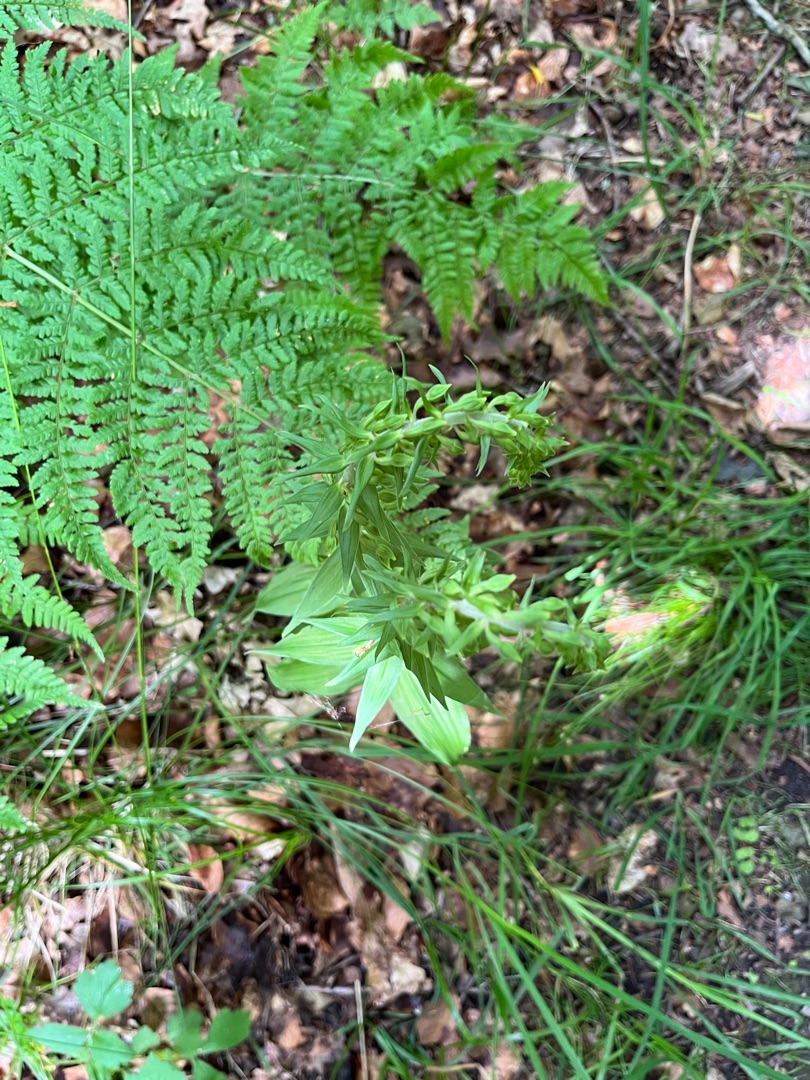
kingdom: Plantae
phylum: Tracheophyta
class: Liliopsida
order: Asparagales
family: Orchidaceae
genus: Epipactis
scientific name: Epipactis helleborine
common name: Skov-hullæbe
